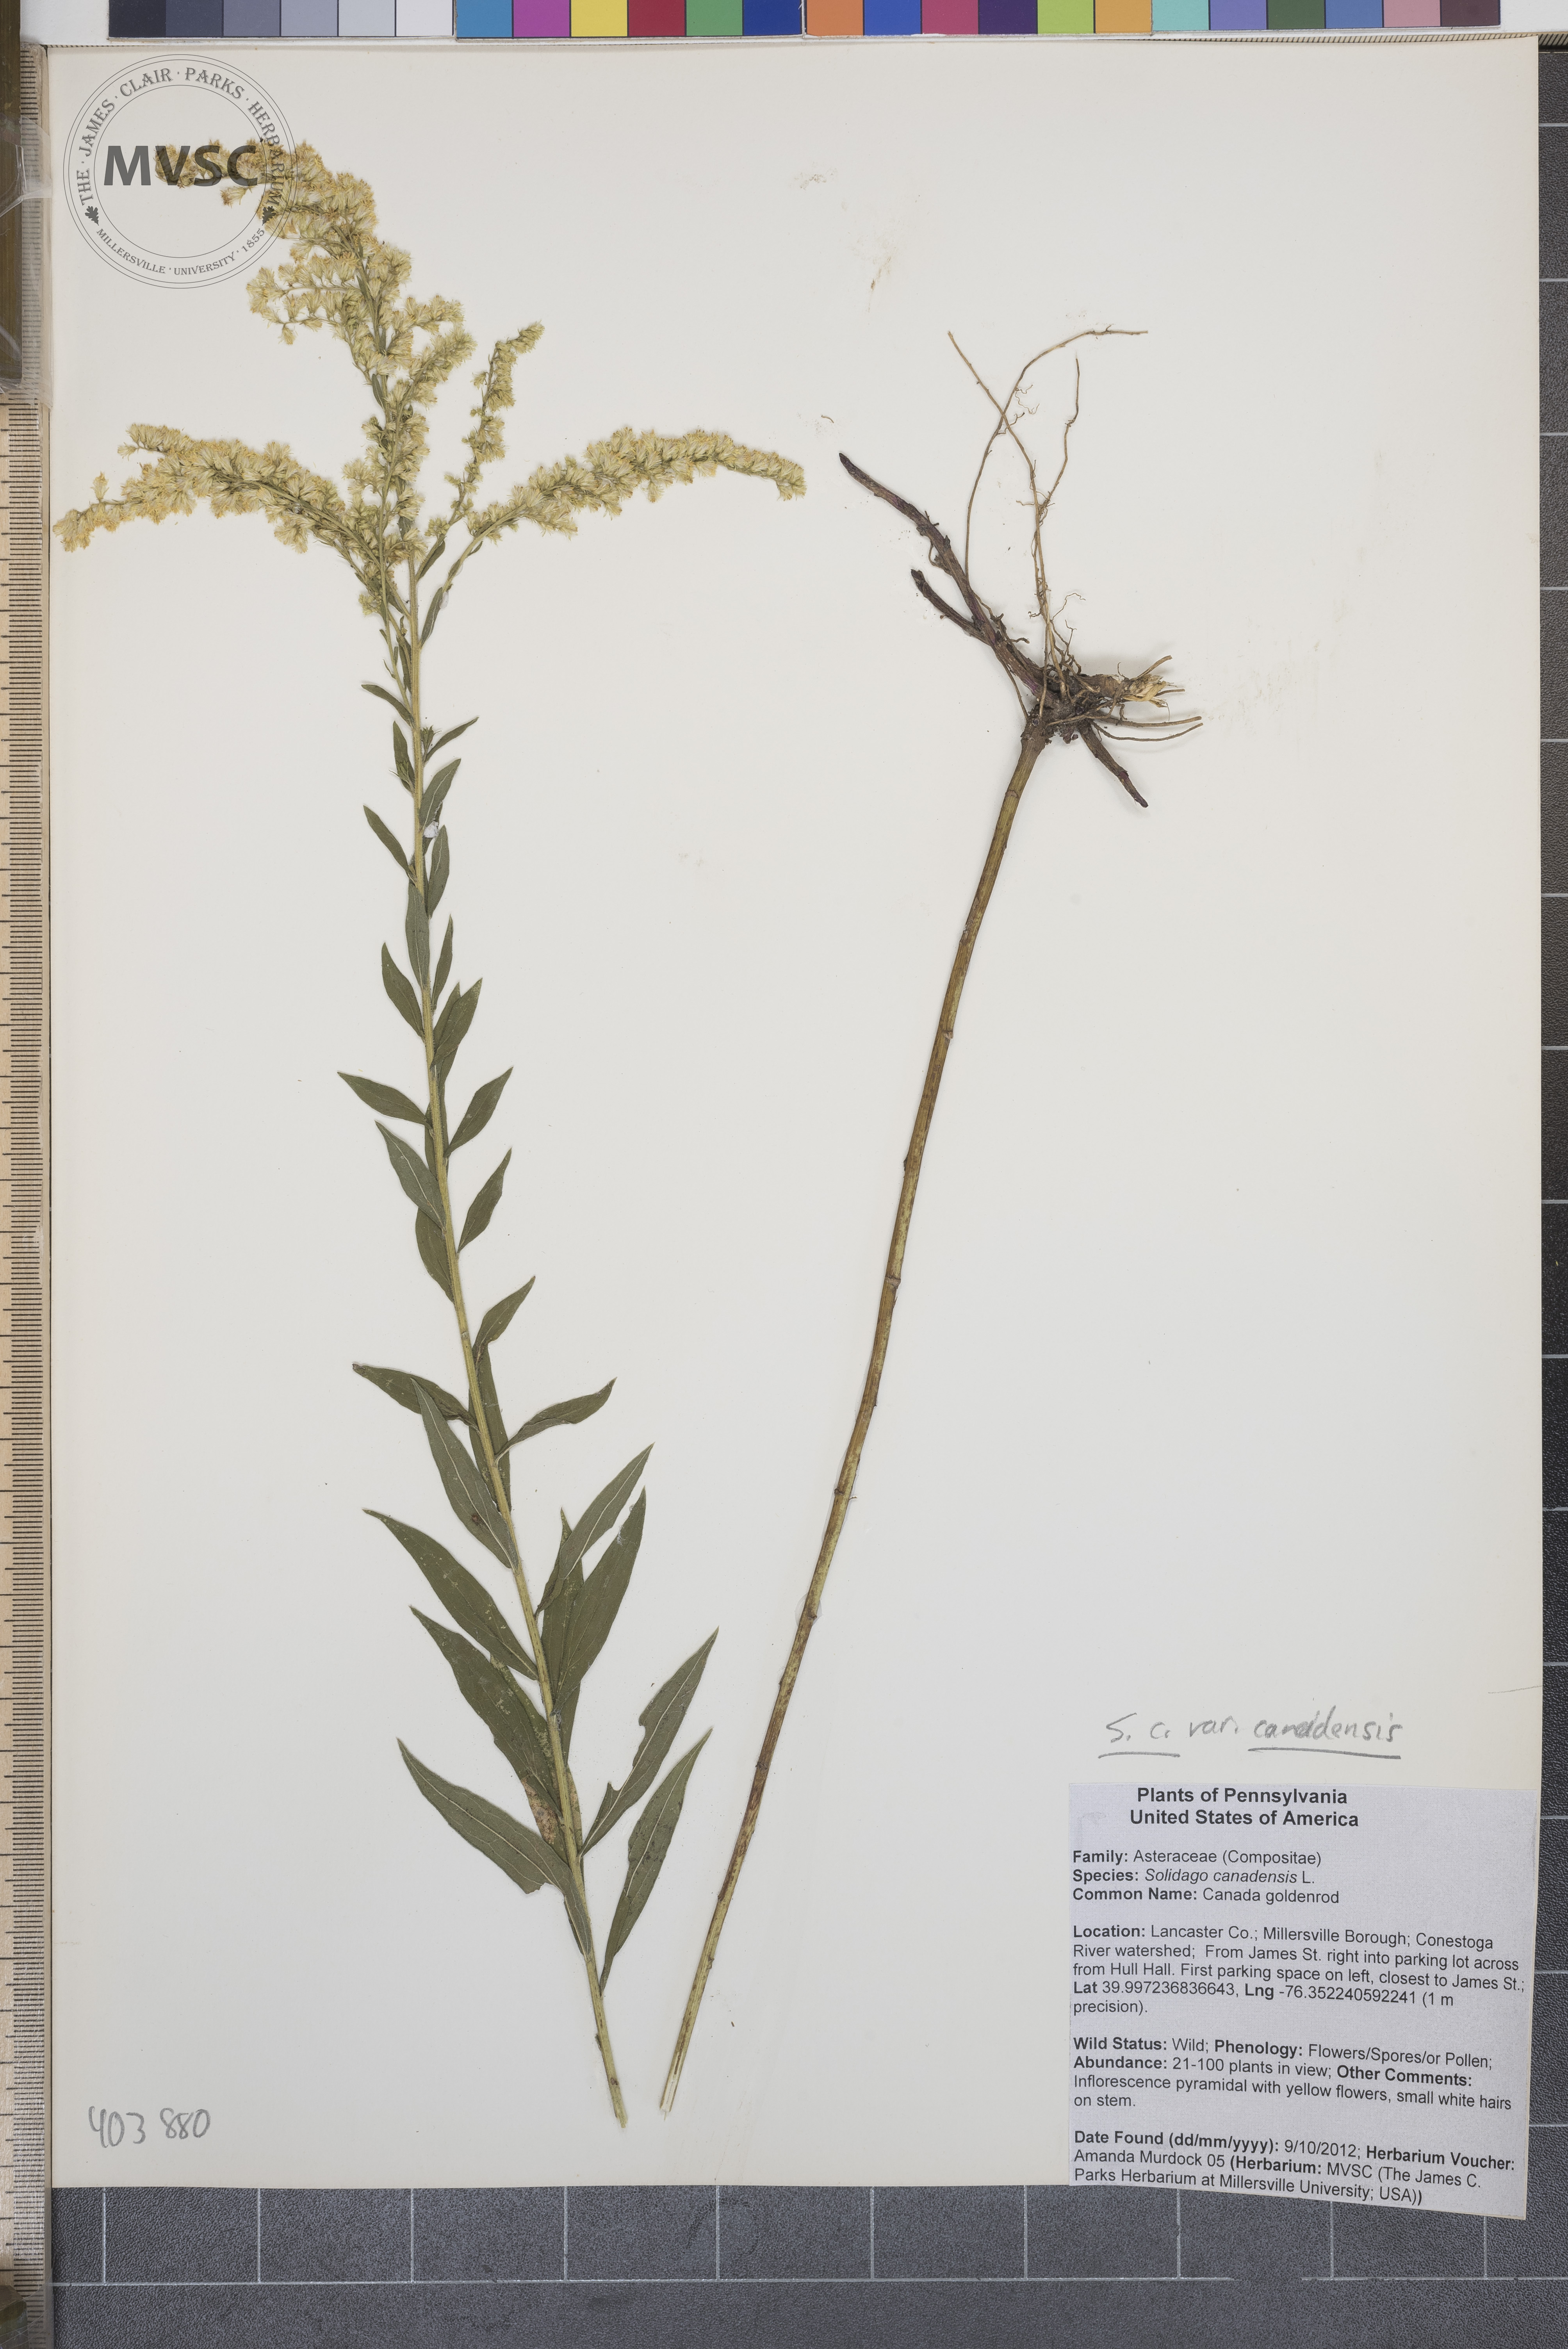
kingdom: Plantae
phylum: Tracheophyta
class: Magnoliopsida
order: Asterales
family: Asteraceae
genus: Solidago
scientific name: Solidago canadensis
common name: Canada goldenrod
